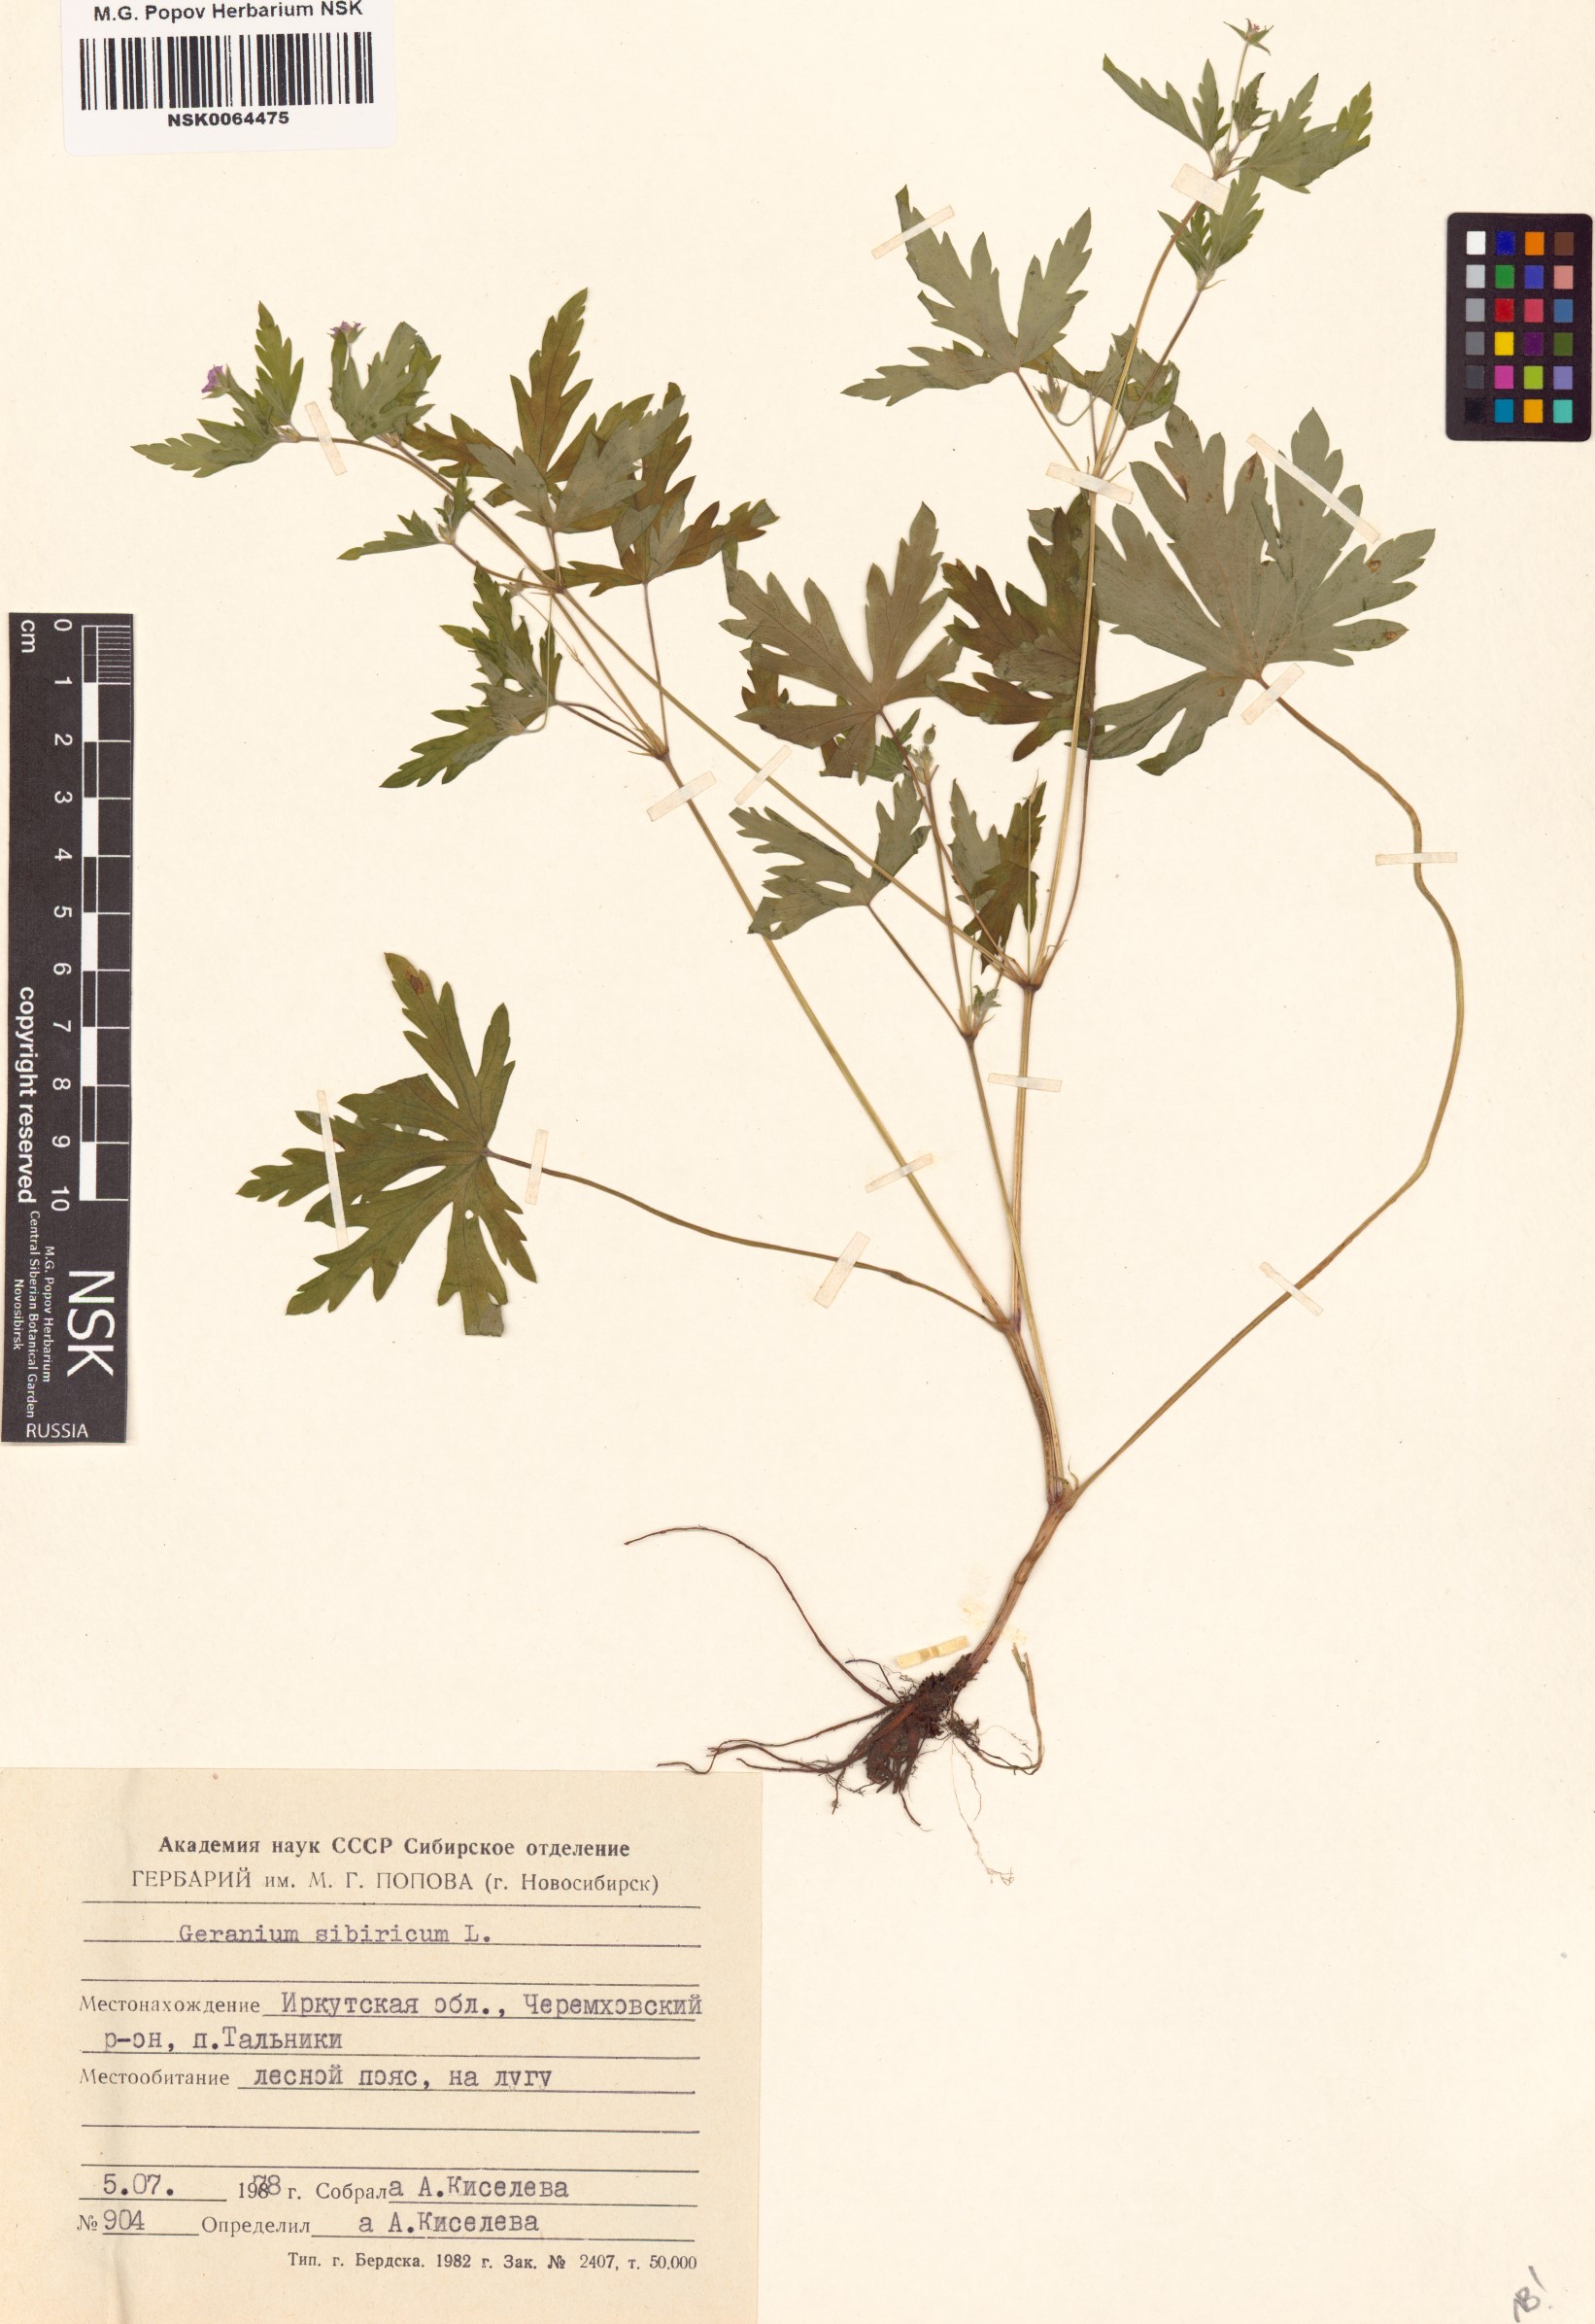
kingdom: Plantae
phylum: Tracheophyta
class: Magnoliopsida
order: Geraniales
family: Geraniaceae
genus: Geranium
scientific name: Geranium sibiricum
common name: Siberian crane's-bill
